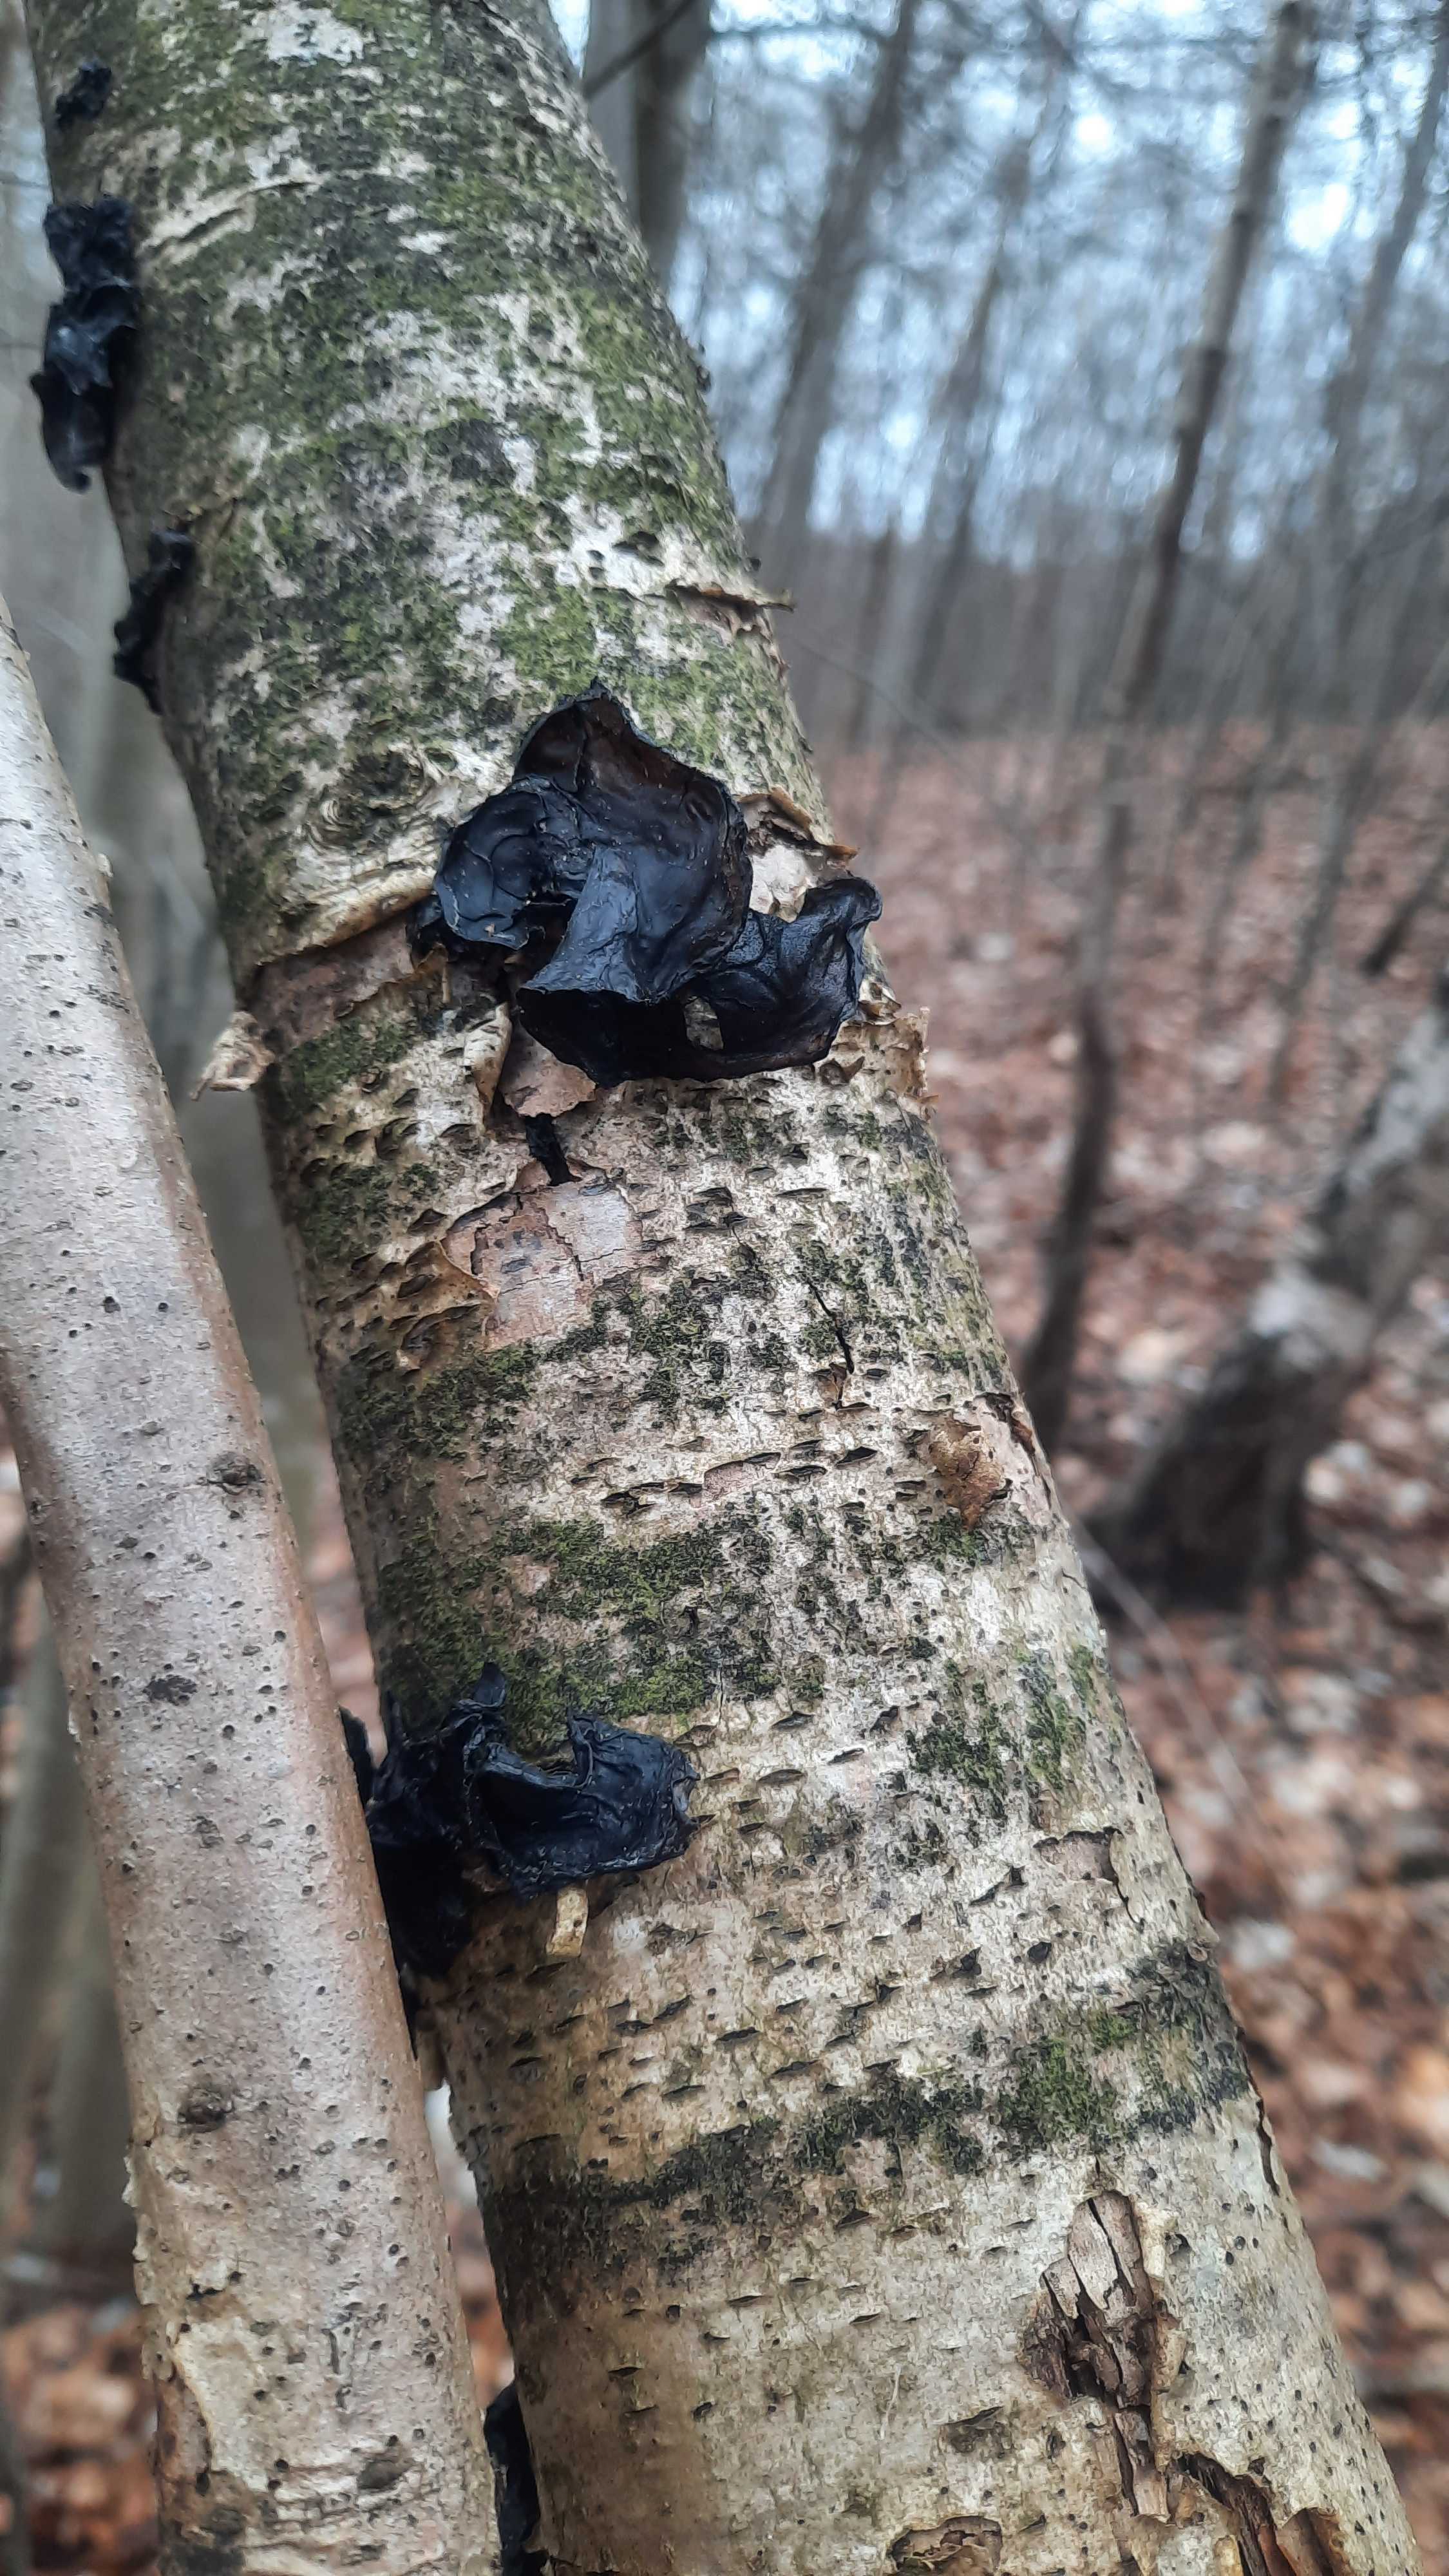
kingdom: Fungi
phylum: Basidiomycota
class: Agaricomycetes
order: Auriculariales
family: Auriculariaceae
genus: Exidia
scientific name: Exidia nigricans
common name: almindelig bævretop
